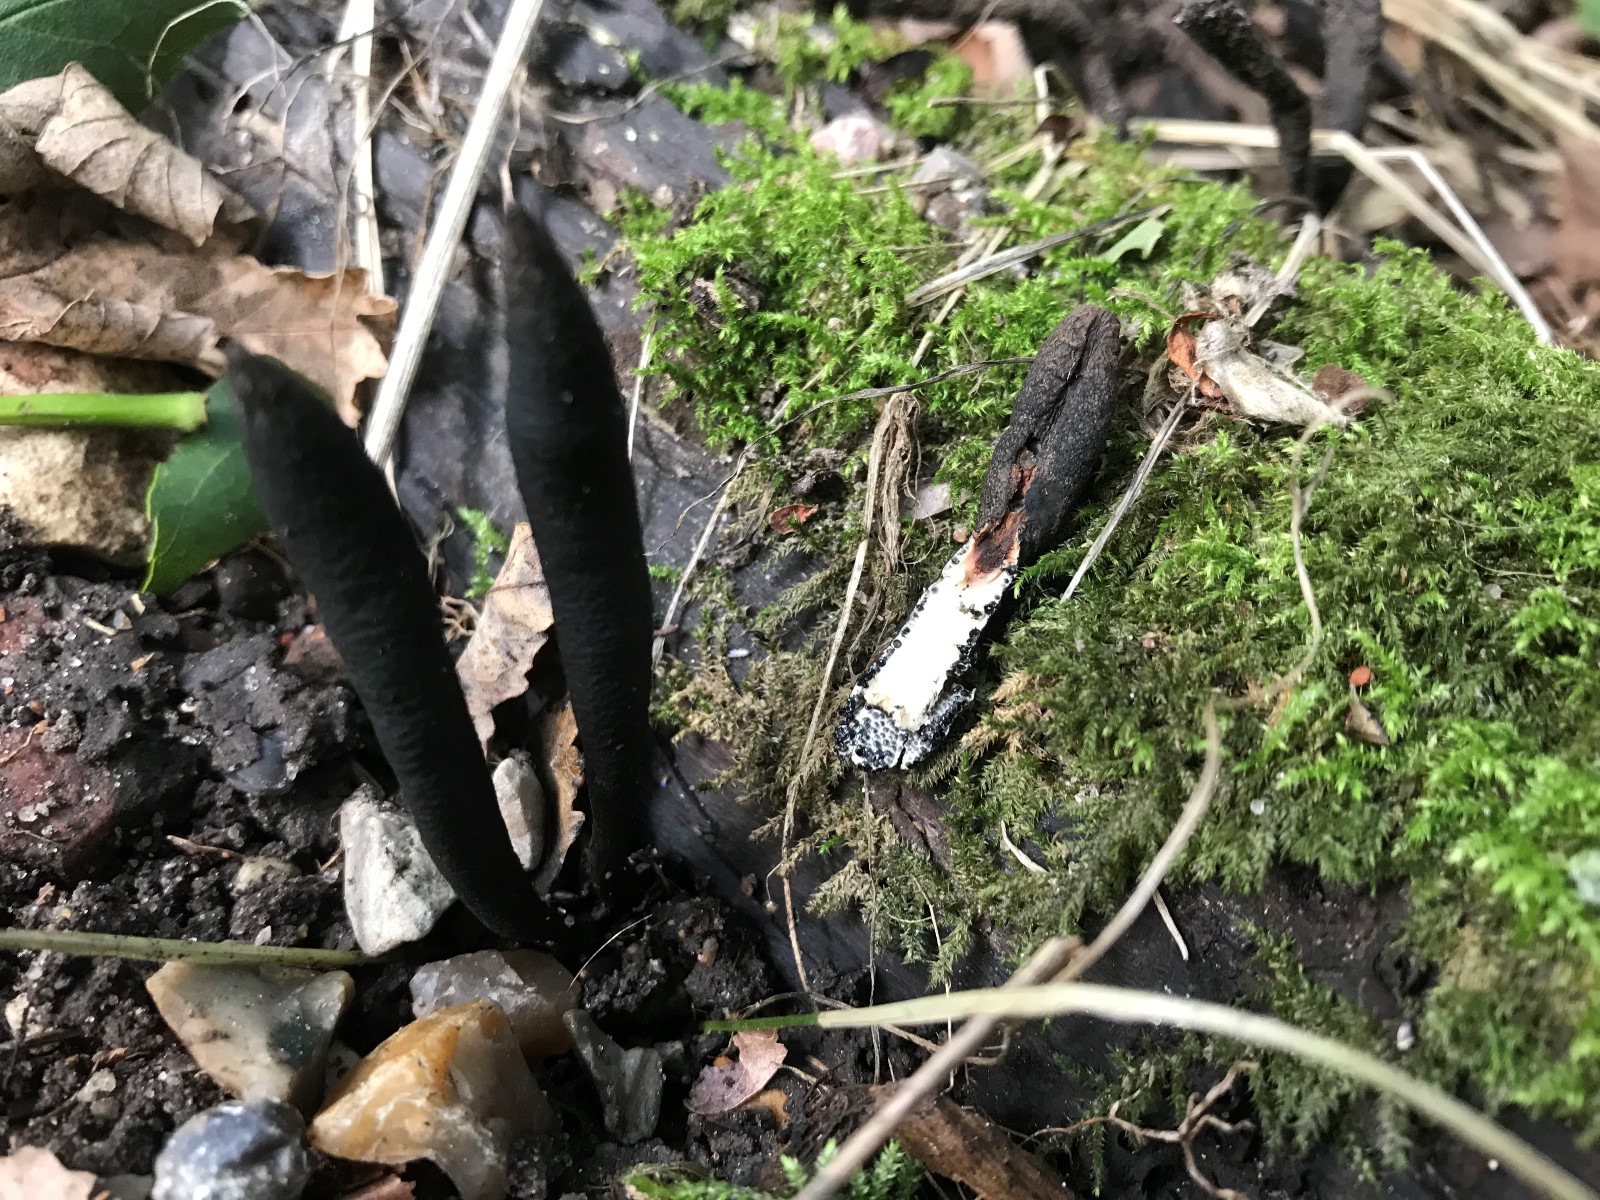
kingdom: Fungi
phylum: Ascomycota
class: Sordariomycetes
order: Xylariales
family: Xylariaceae
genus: Xylaria
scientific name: Xylaria longipes
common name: slank stødsvamp
